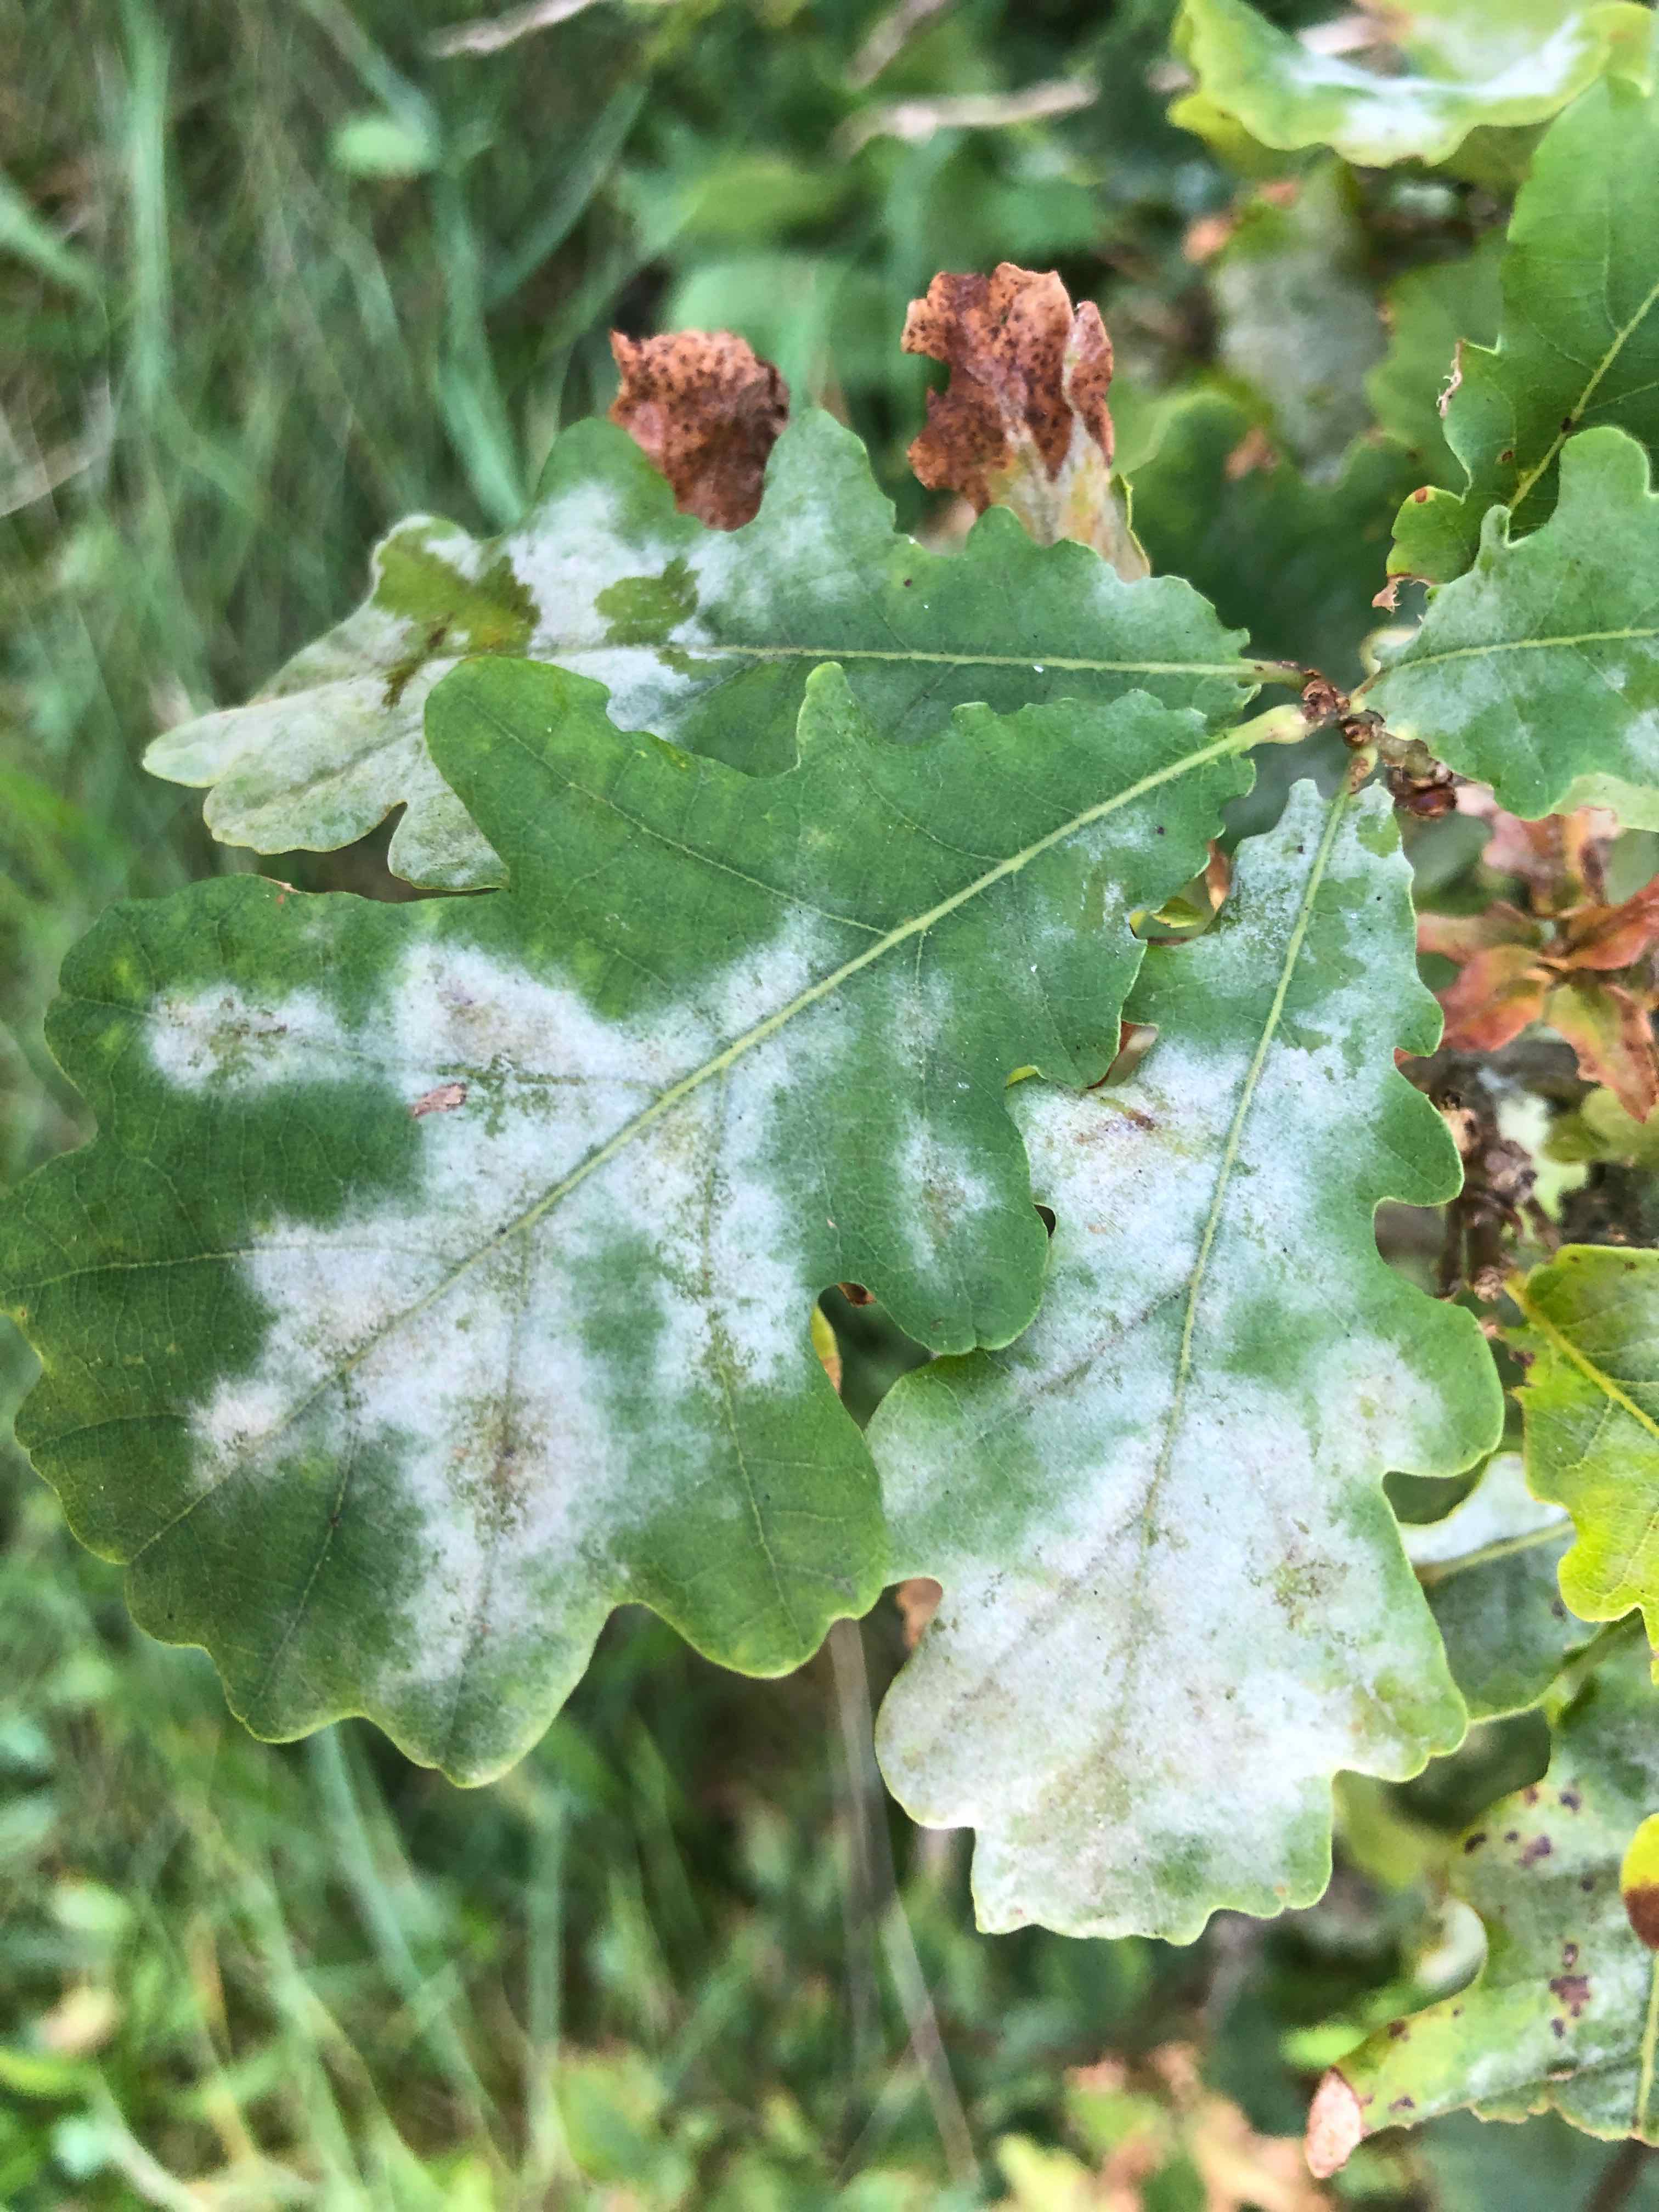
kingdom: Fungi
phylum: Ascomycota
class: Leotiomycetes
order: Helotiales
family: Erysiphaceae
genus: Erysiphe
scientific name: Erysiphe alphitoides
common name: ege-meldug
